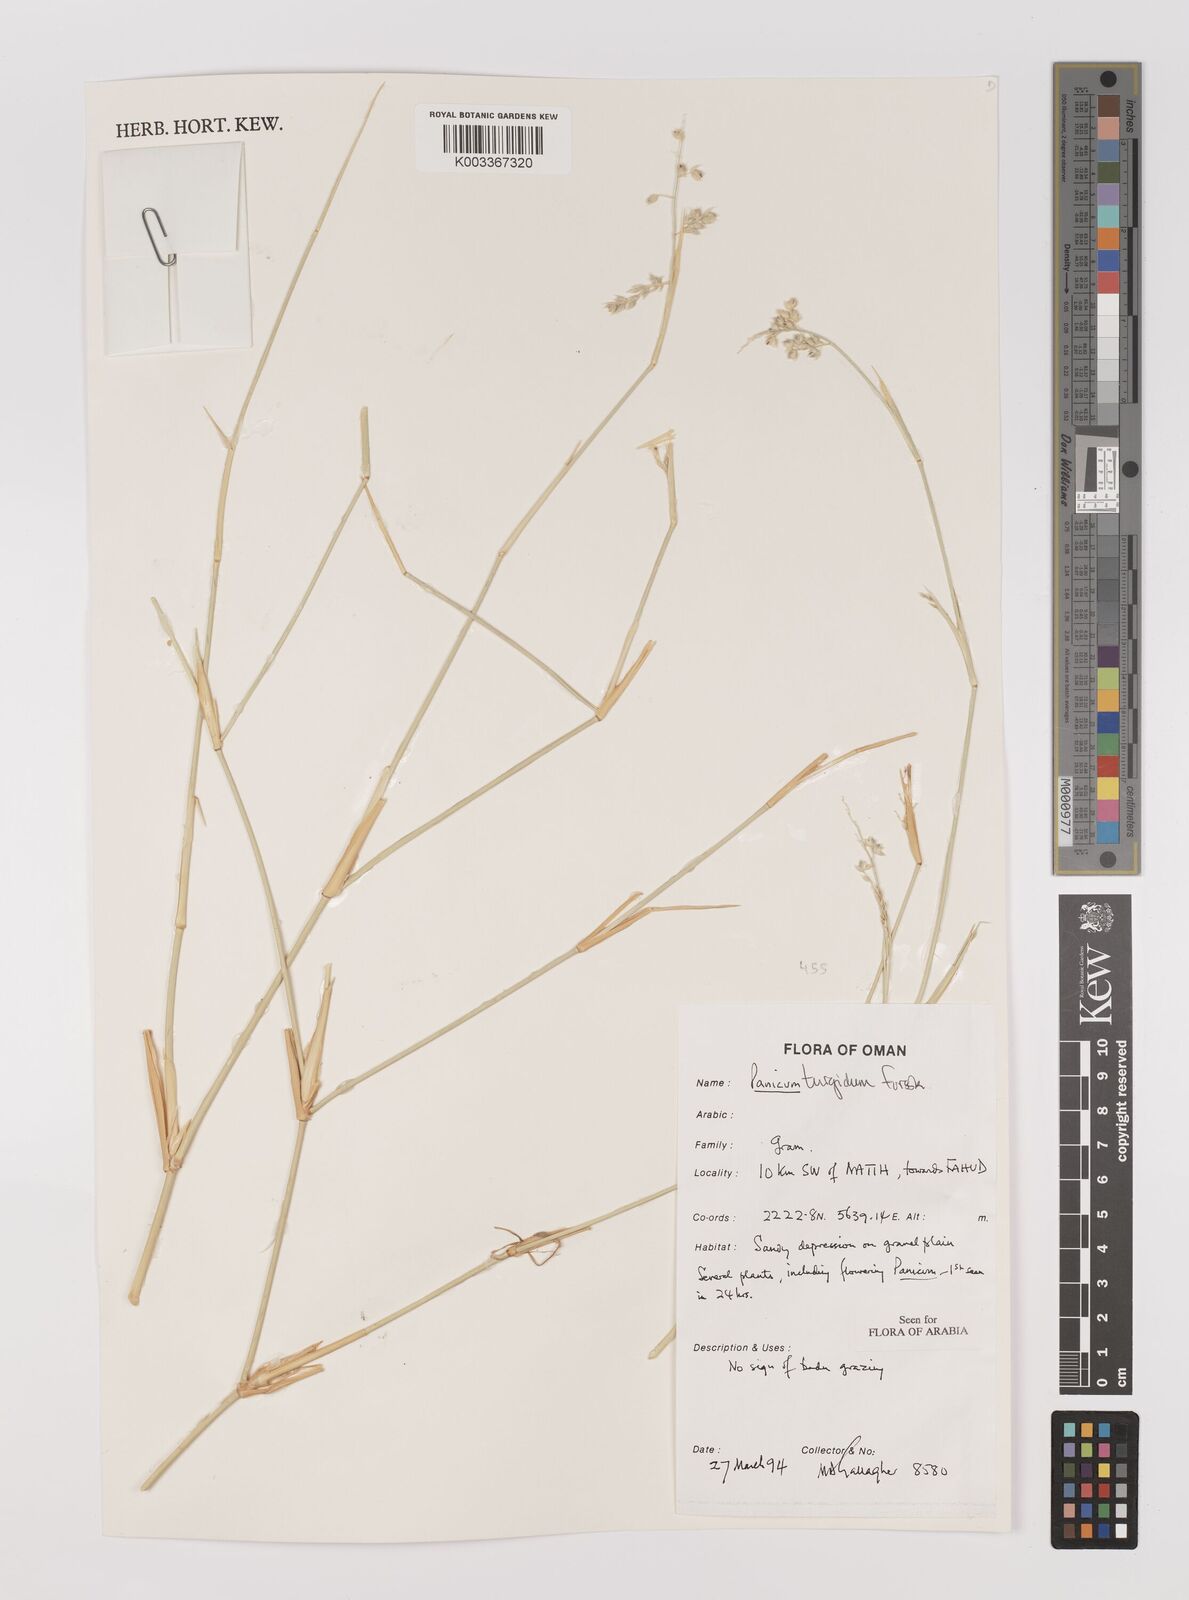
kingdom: Plantae
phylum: Tracheophyta
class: Liliopsida
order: Poales
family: Poaceae
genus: Panicum
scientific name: Panicum turgidum
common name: Desert grass
